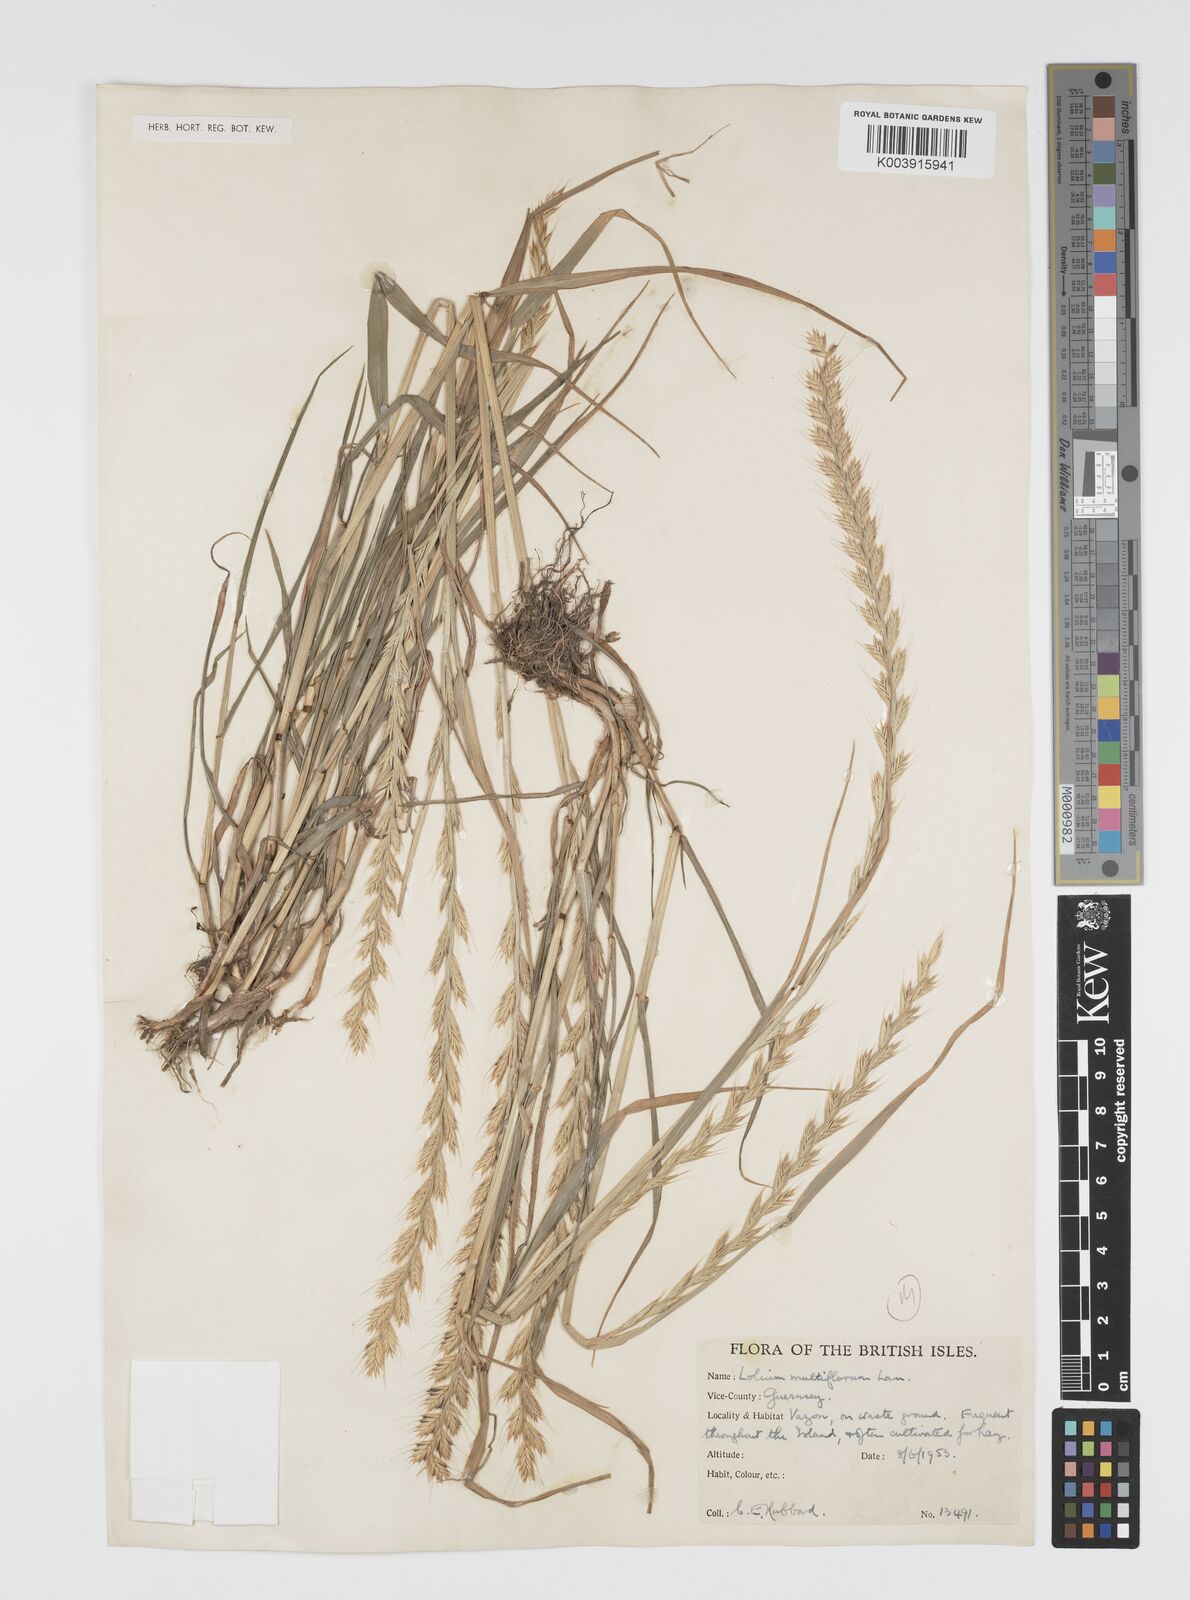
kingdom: Plantae
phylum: Tracheophyta
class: Liliopsida
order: Poales
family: Poaceae
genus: Lolium
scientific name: Lolium multiflorum
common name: Annual ryegrass
